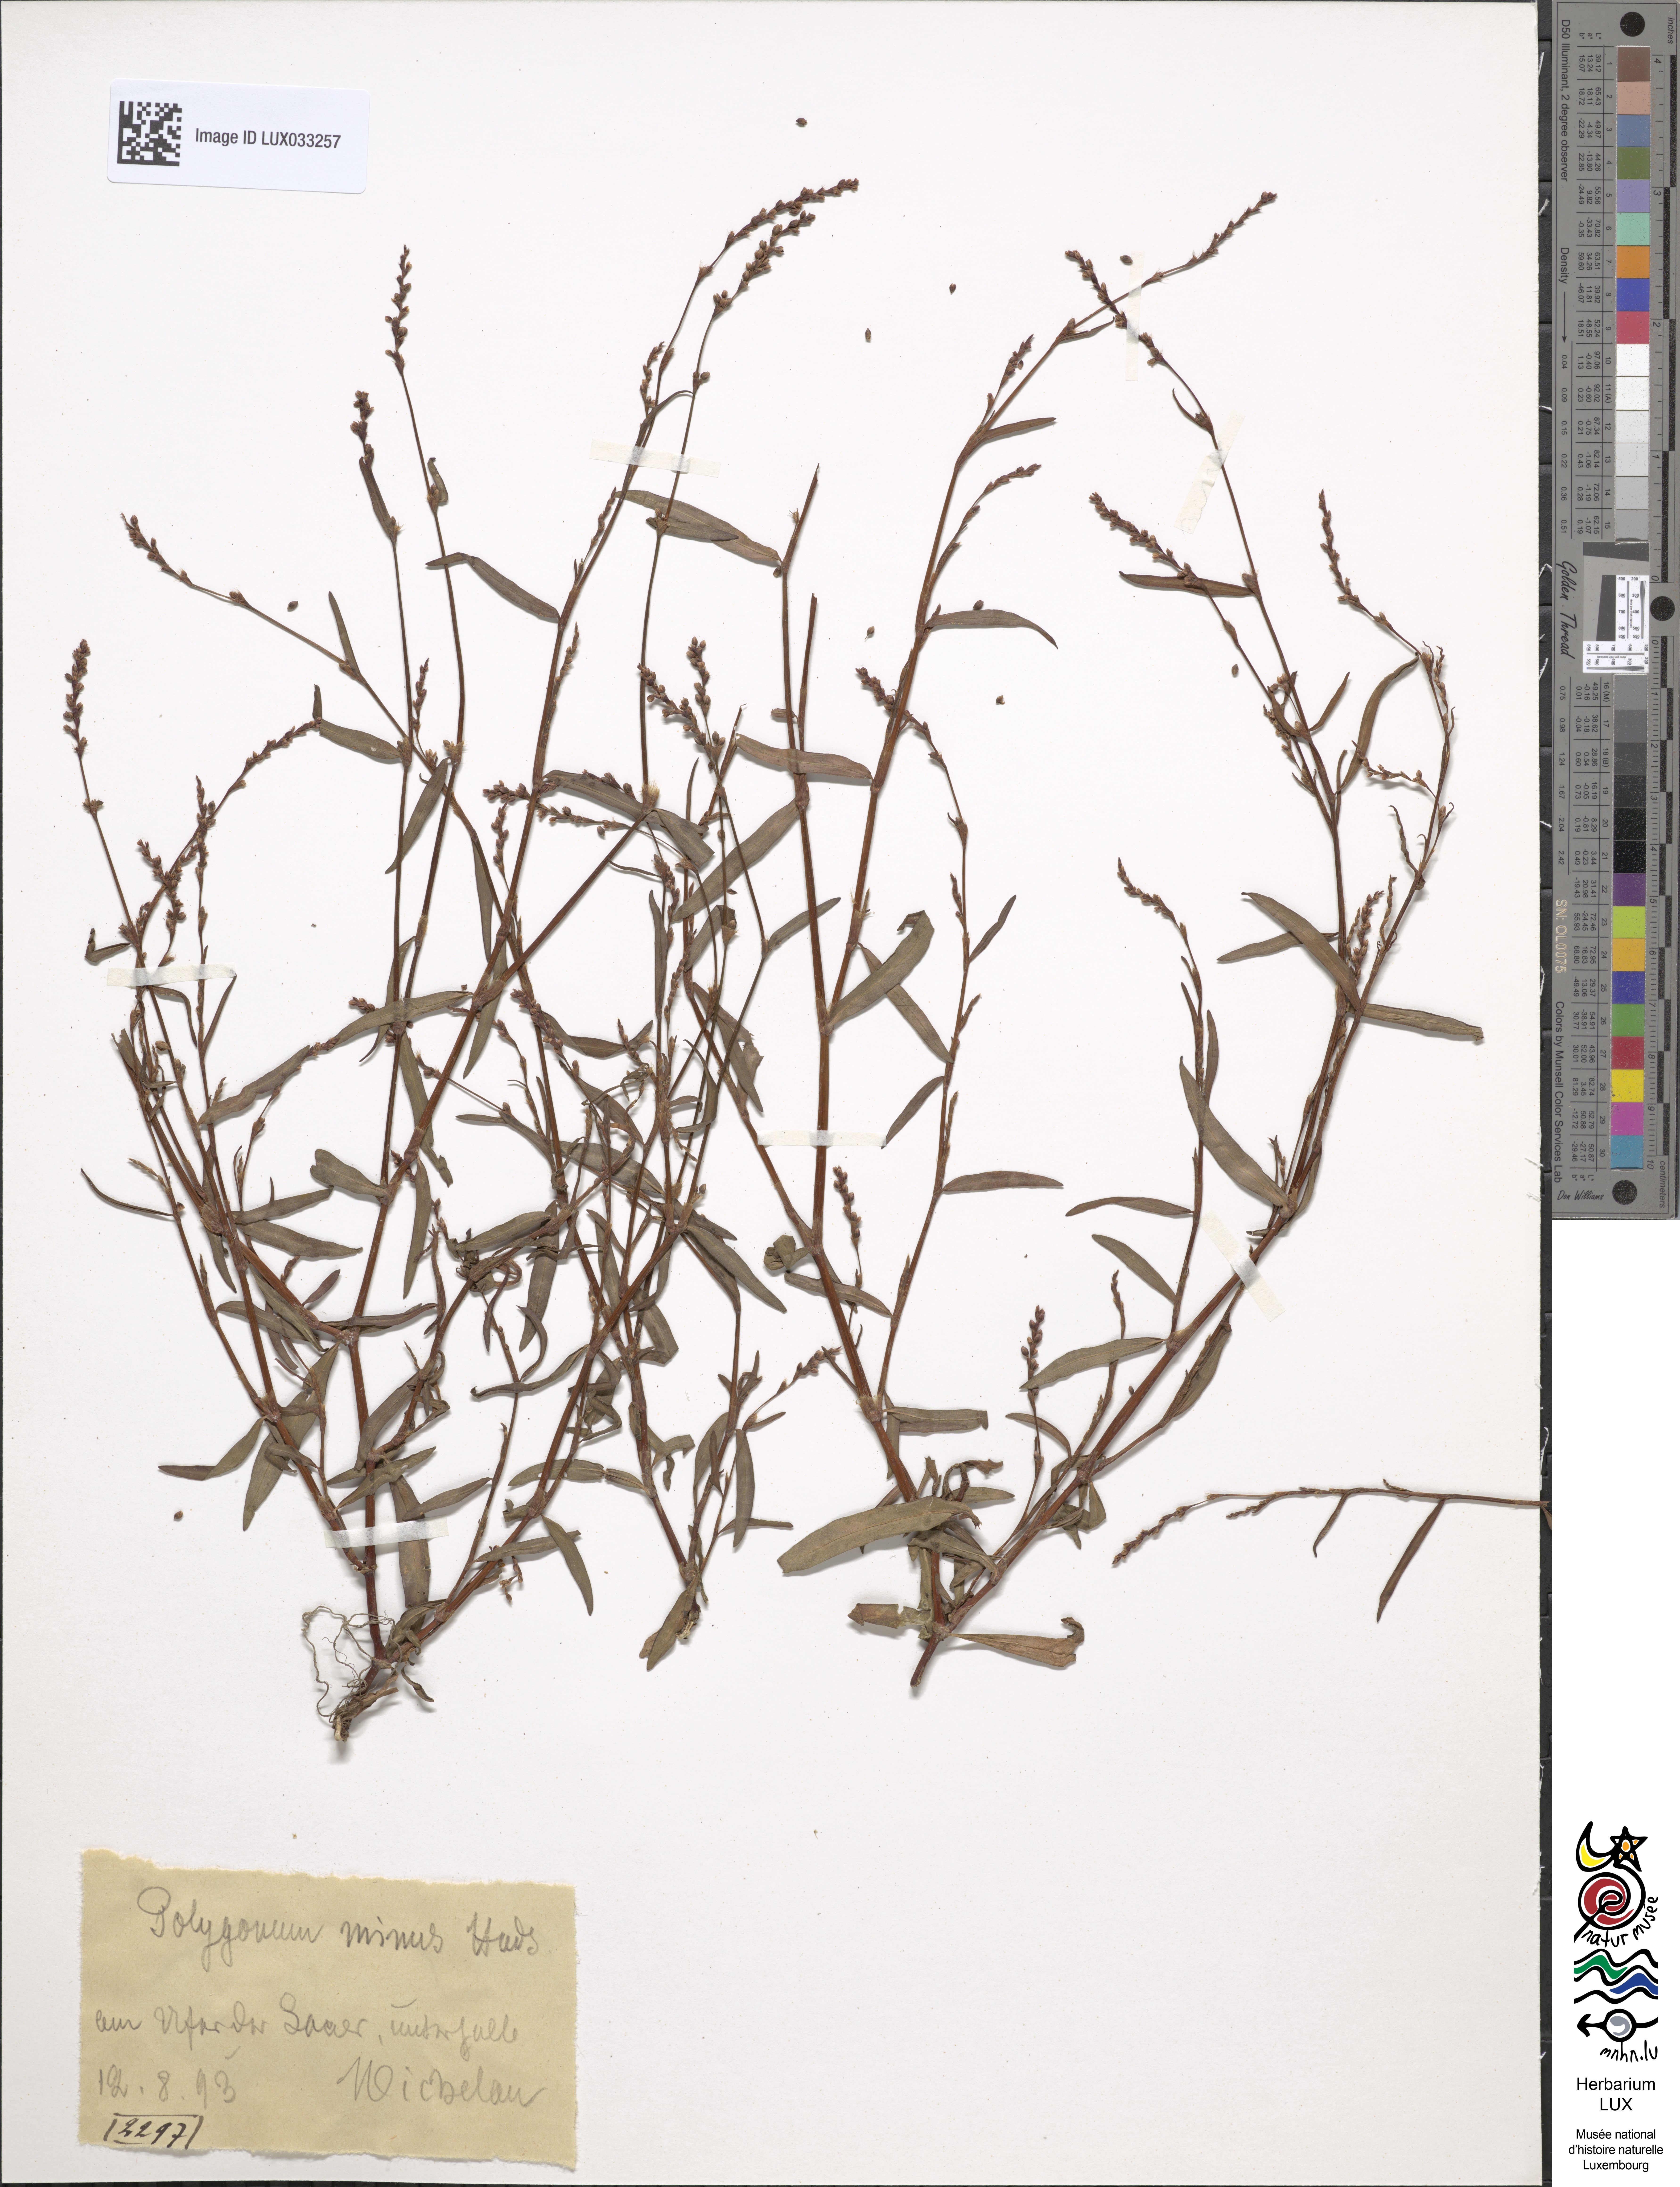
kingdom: Plantae
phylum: Tracheophyta
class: Magnoliopsida
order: Caryophyllales
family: Polygonaceae
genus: Persicaria
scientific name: Persicaria minor
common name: Small water-pepper
